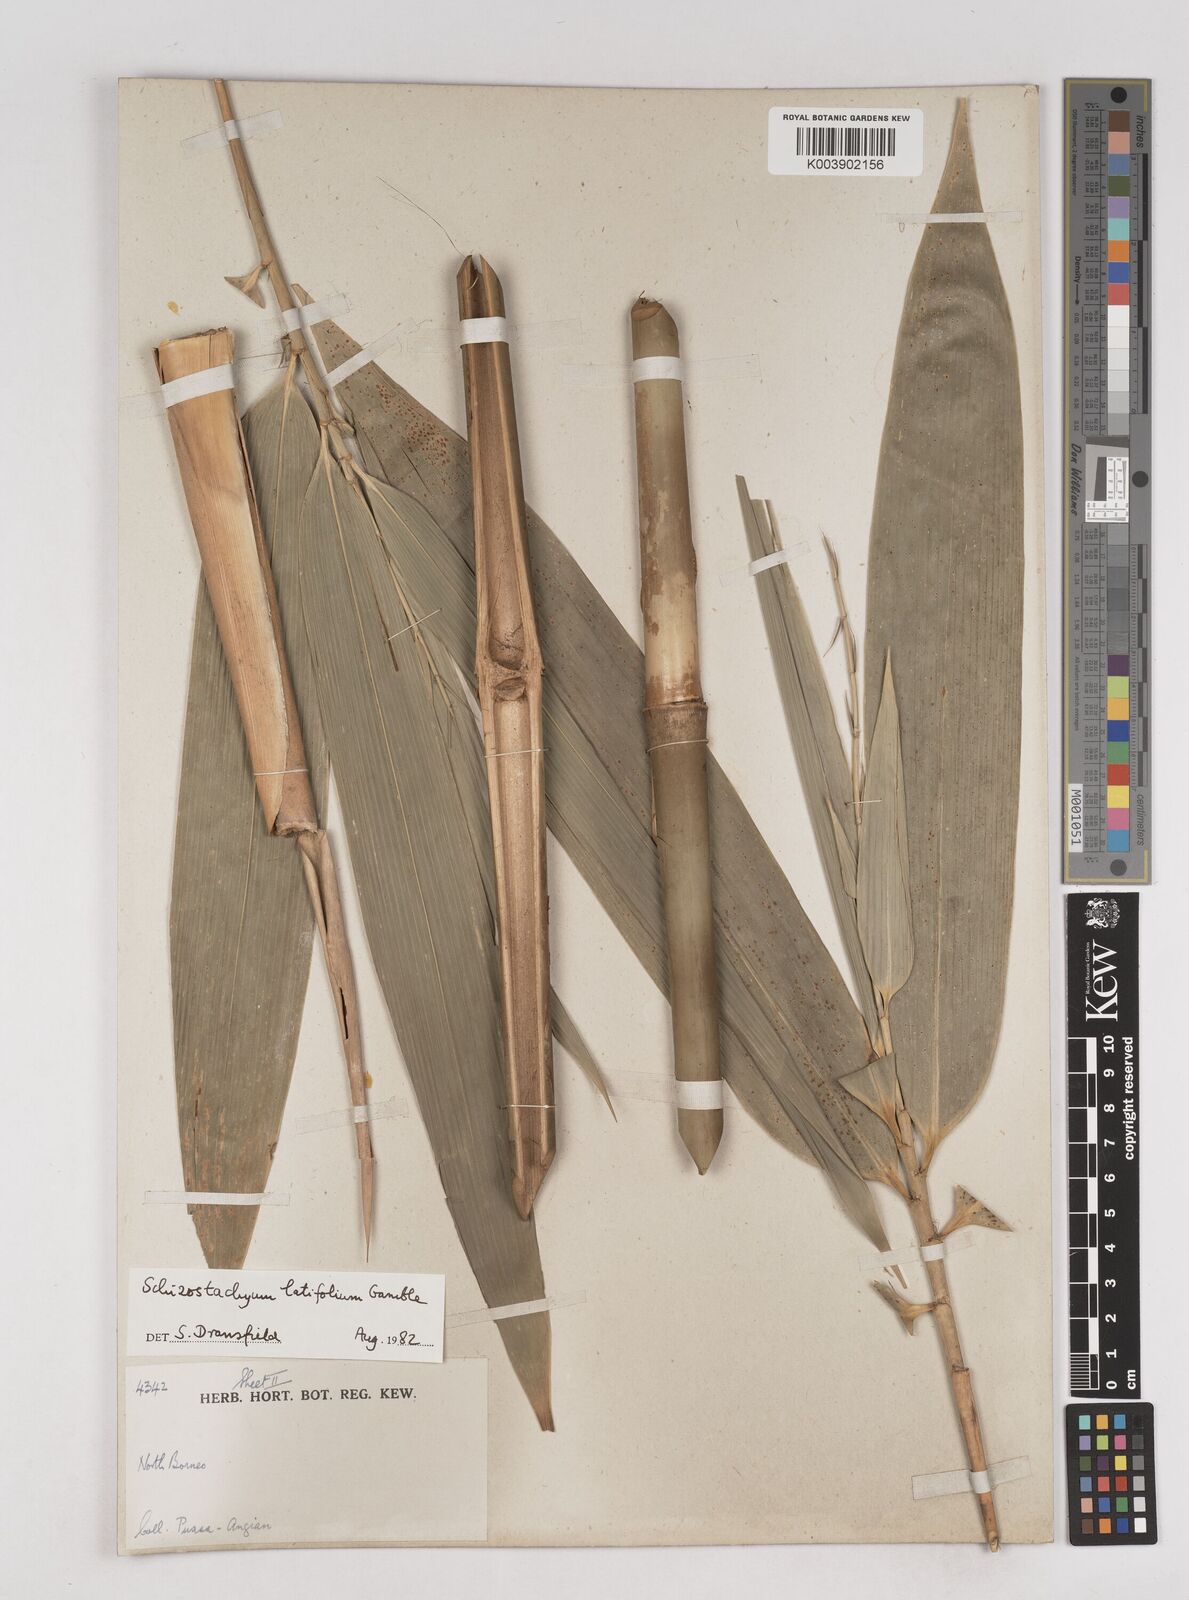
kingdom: Plantae
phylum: Tracheophyta
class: Liliopsida
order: Poales
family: Poaceae
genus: Schizostachyum
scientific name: Schizostachyum latifolium
